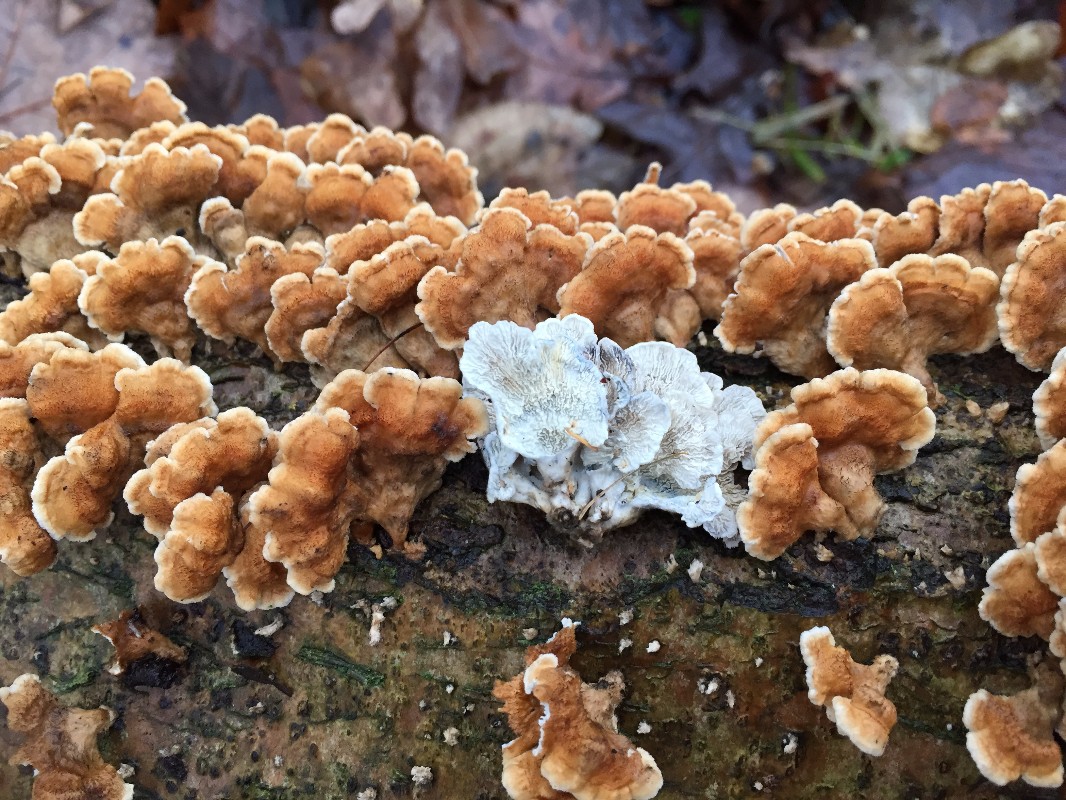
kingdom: Fungi
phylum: Basidiomycota
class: Agaricomycetes
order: Amylocorticiales
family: Amylocorticiaceae
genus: Plicaturopsis
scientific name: Plicaturopsis crispa
